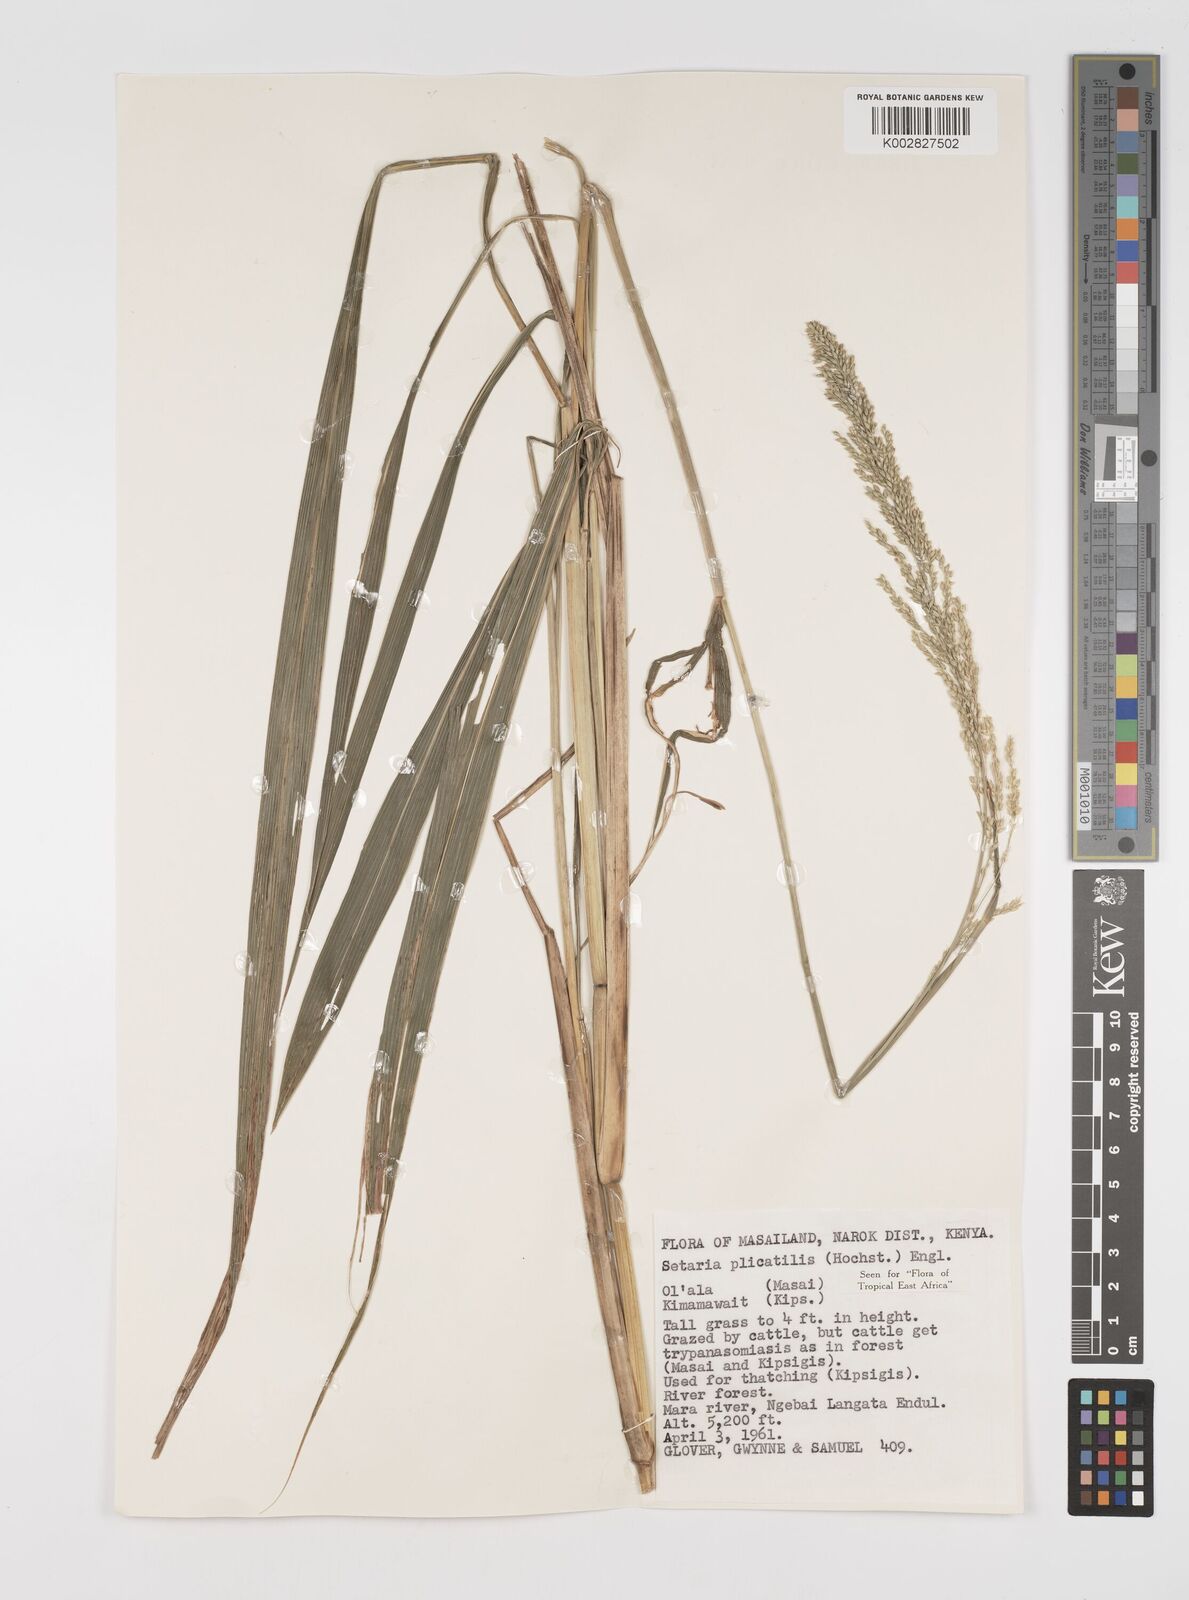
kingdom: Plantae
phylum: Tracheophyta
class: Liliopsida
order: Poales
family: Poaceae
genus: Setaria
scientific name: Setaria megaphylla
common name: Bigleaf bristlegrass
